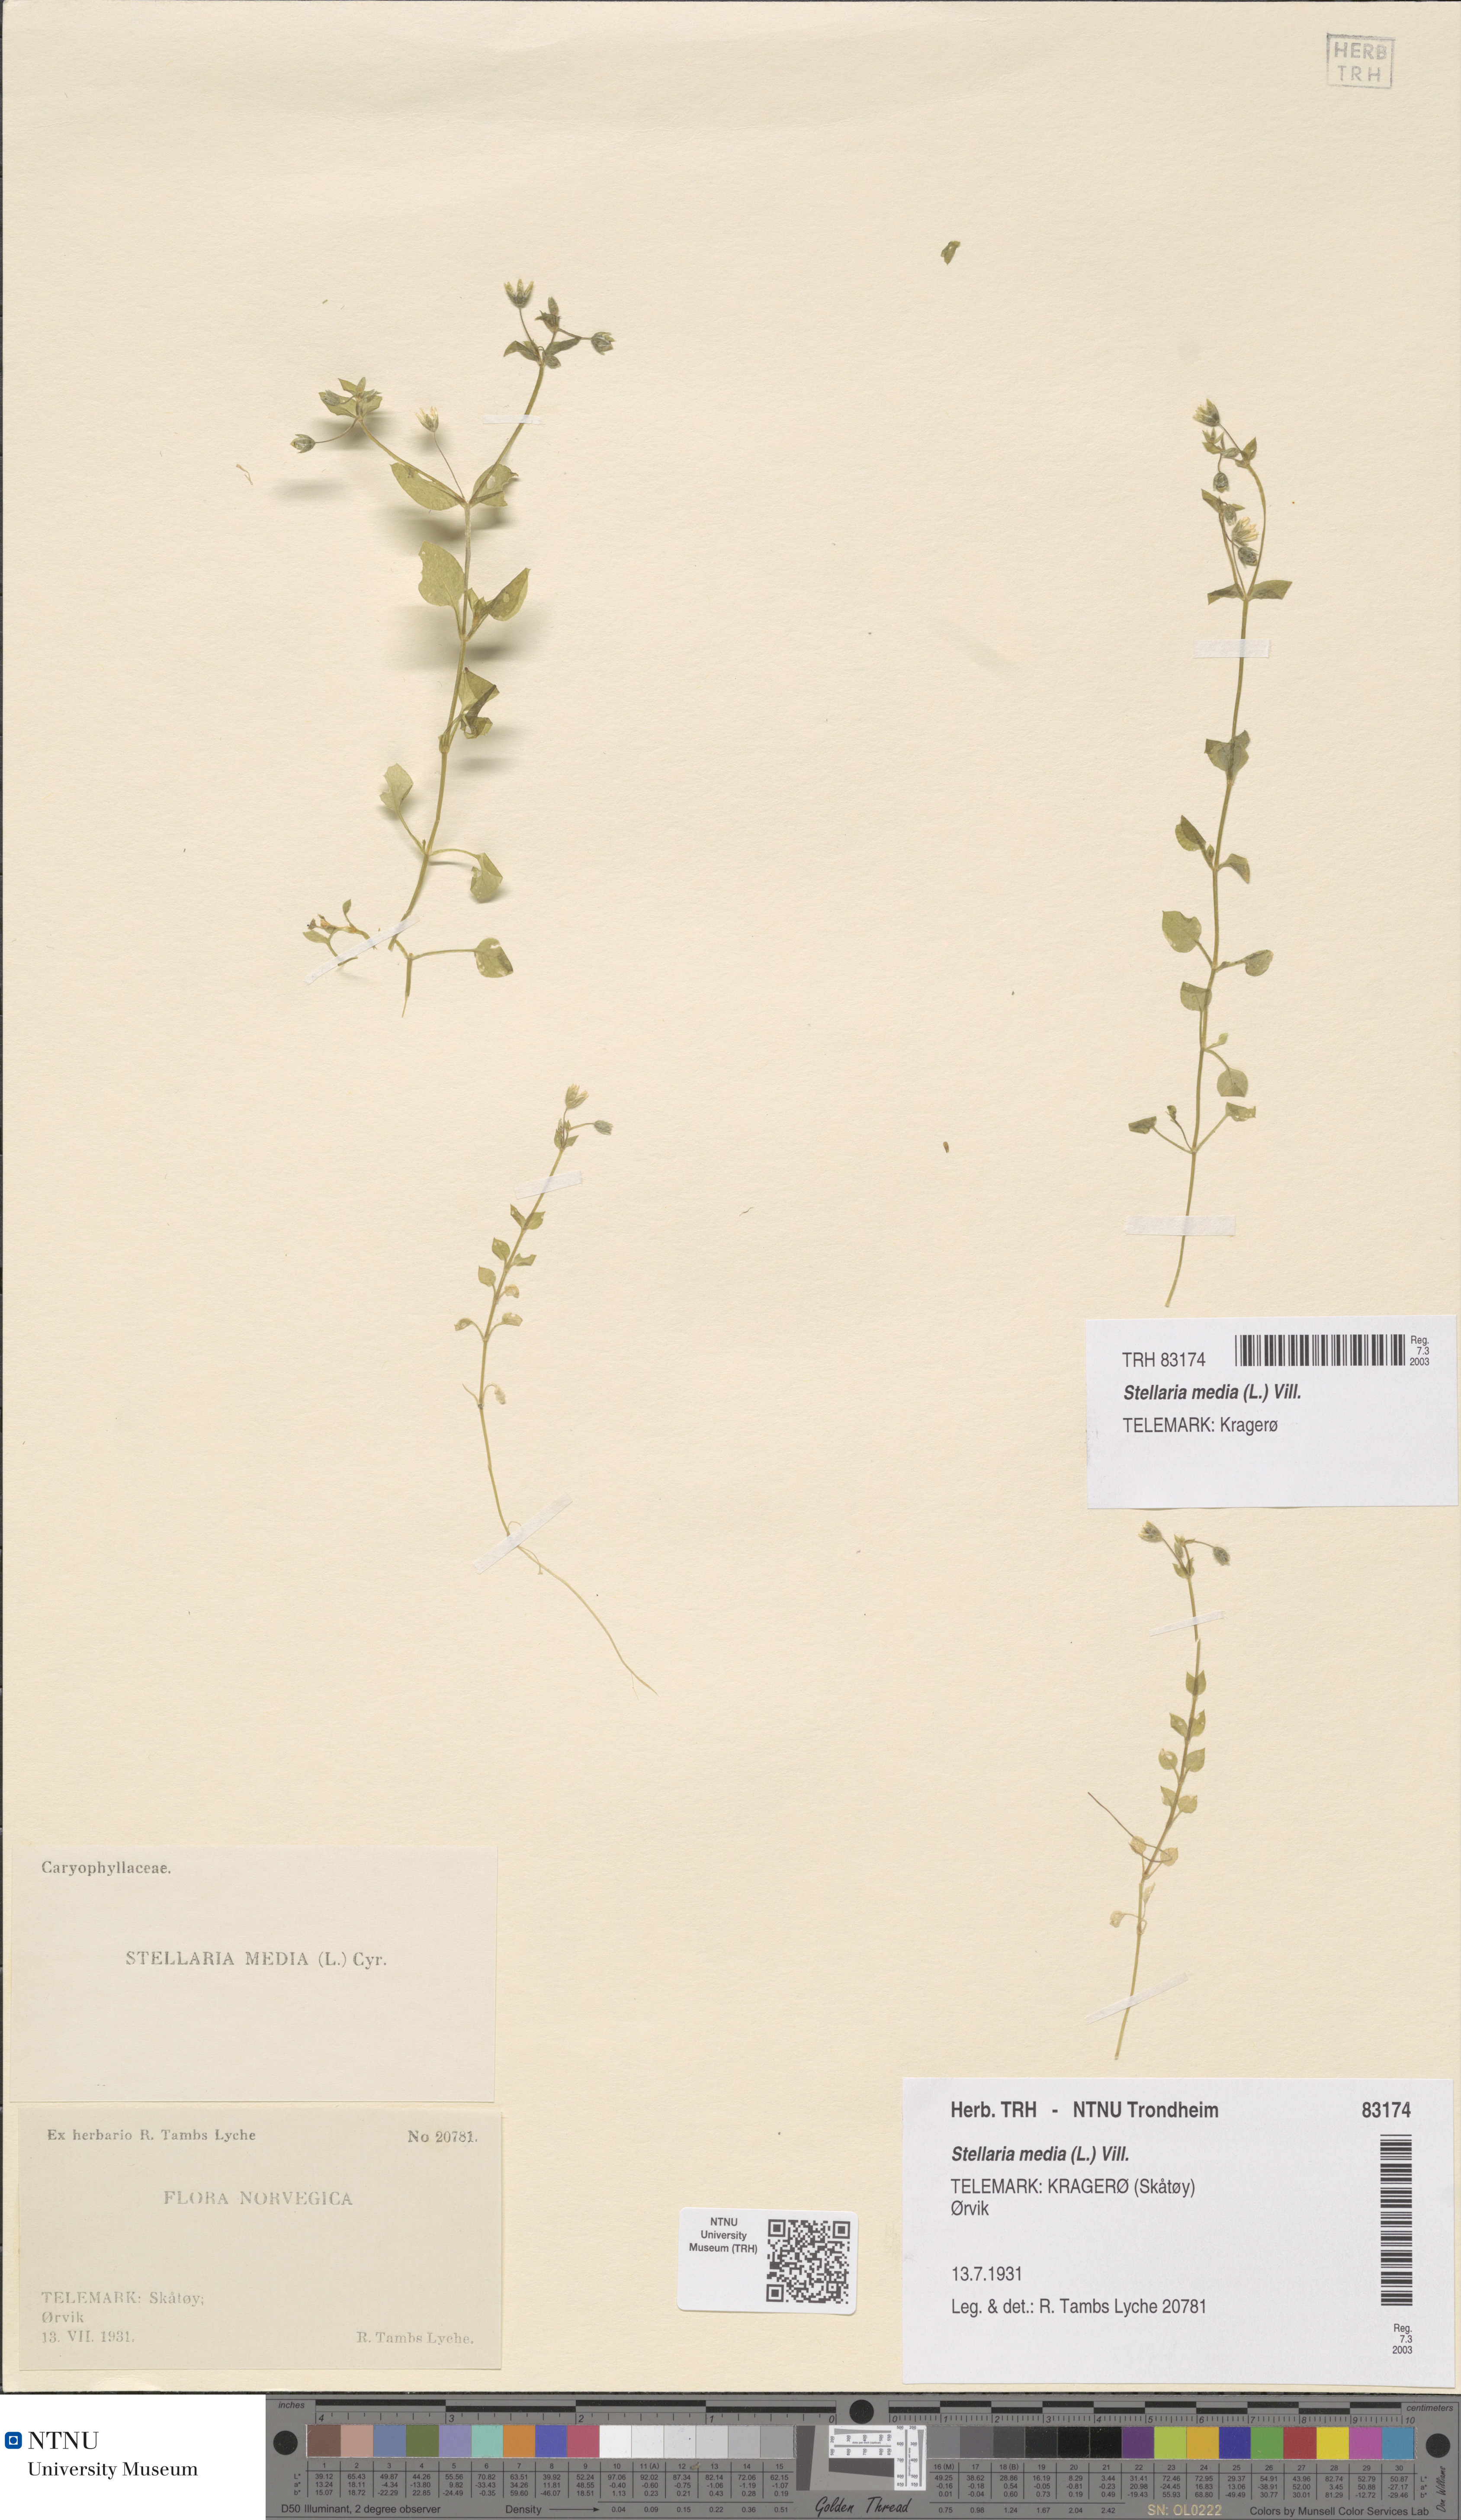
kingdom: Plantae
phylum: Tracheophyta
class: Magnoliopsida
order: Caryophyllales
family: Caryophyllaceae
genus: Stellaria
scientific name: Stellaria media
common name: Common chickweed
